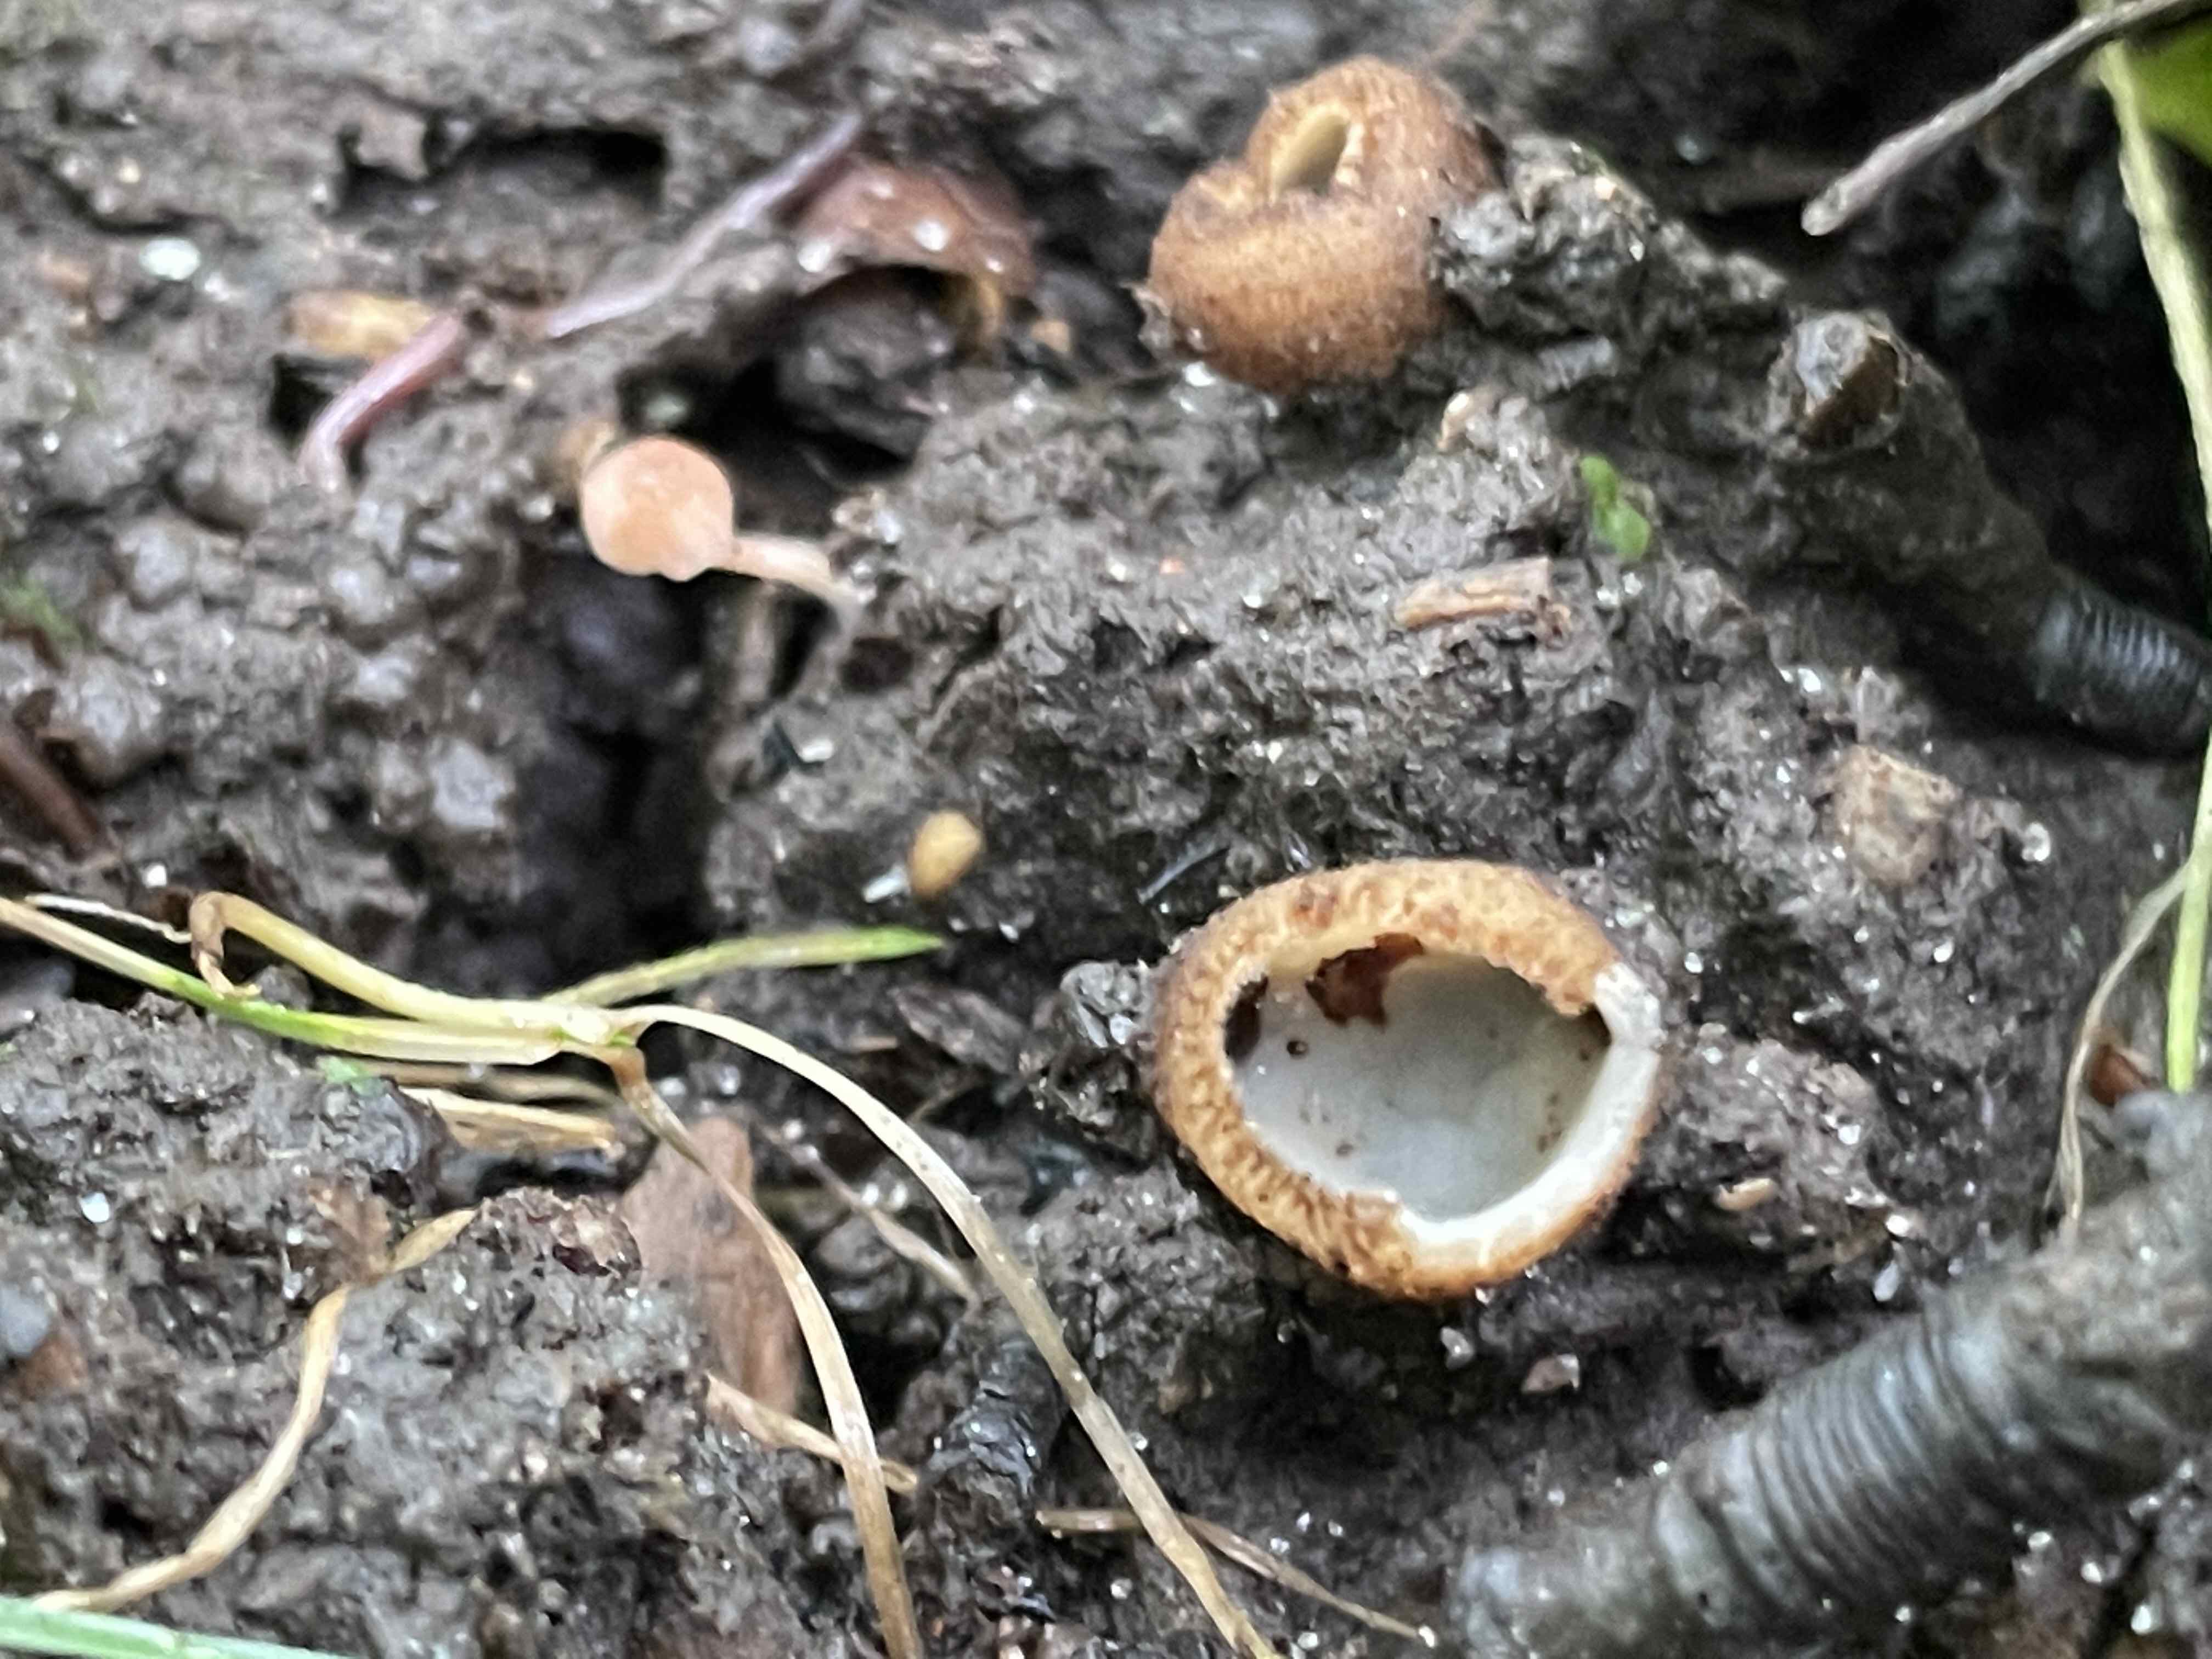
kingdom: Fungi
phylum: Ascomycota
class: Pezizomycetes
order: Pezizales
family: Pyronemataceae
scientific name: Pyronemataceae
